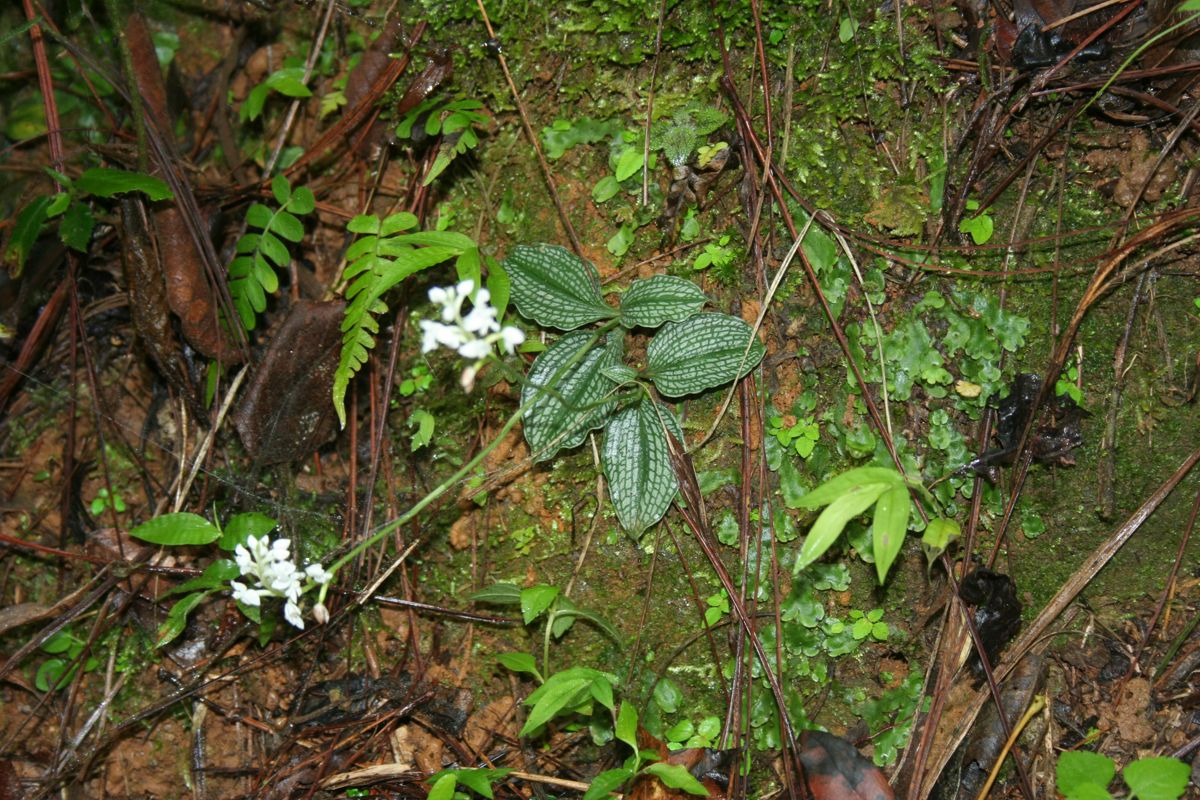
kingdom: Plantae
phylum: Tracheophyta
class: Liliopsida
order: Asparagales
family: Orchidaceae
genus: Cranichis
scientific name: Cranichis sylvatica
